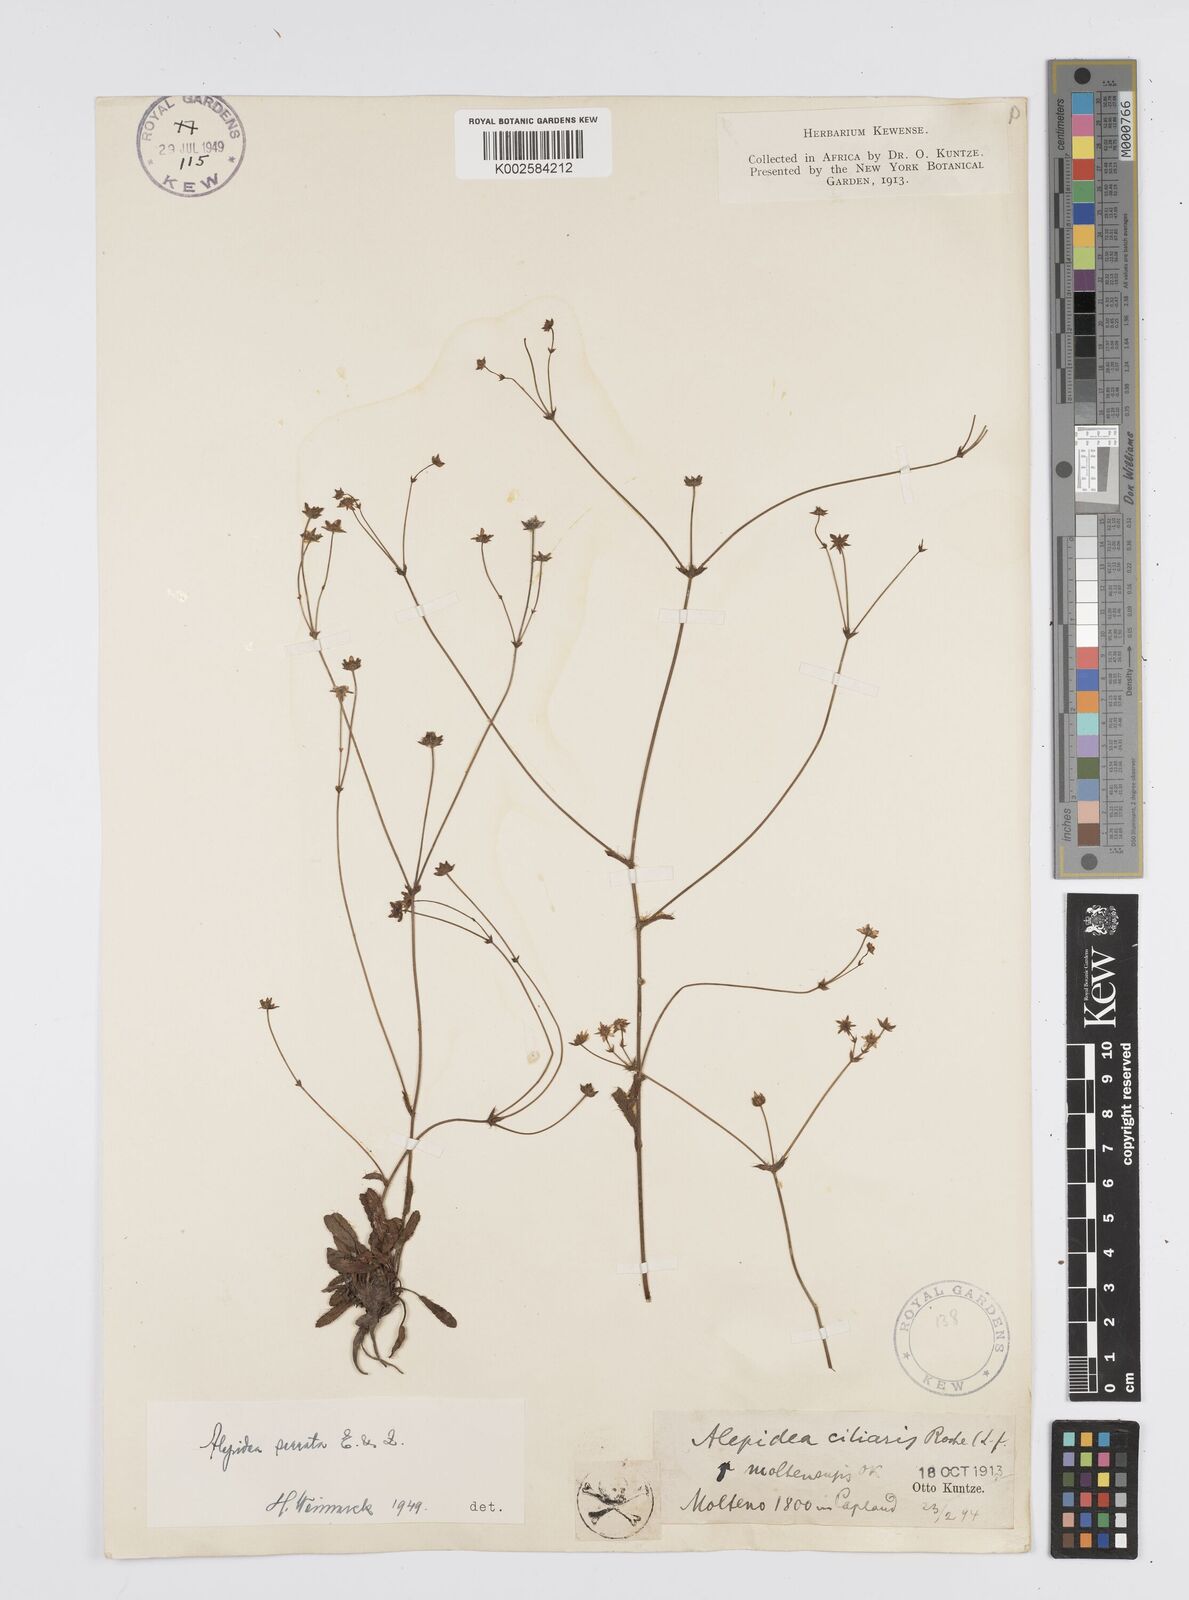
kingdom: Plantae
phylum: Tracheophyta
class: Magnoliopsida
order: Apiales
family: Apiaceae
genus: Alepidea
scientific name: Alepidea serrata
